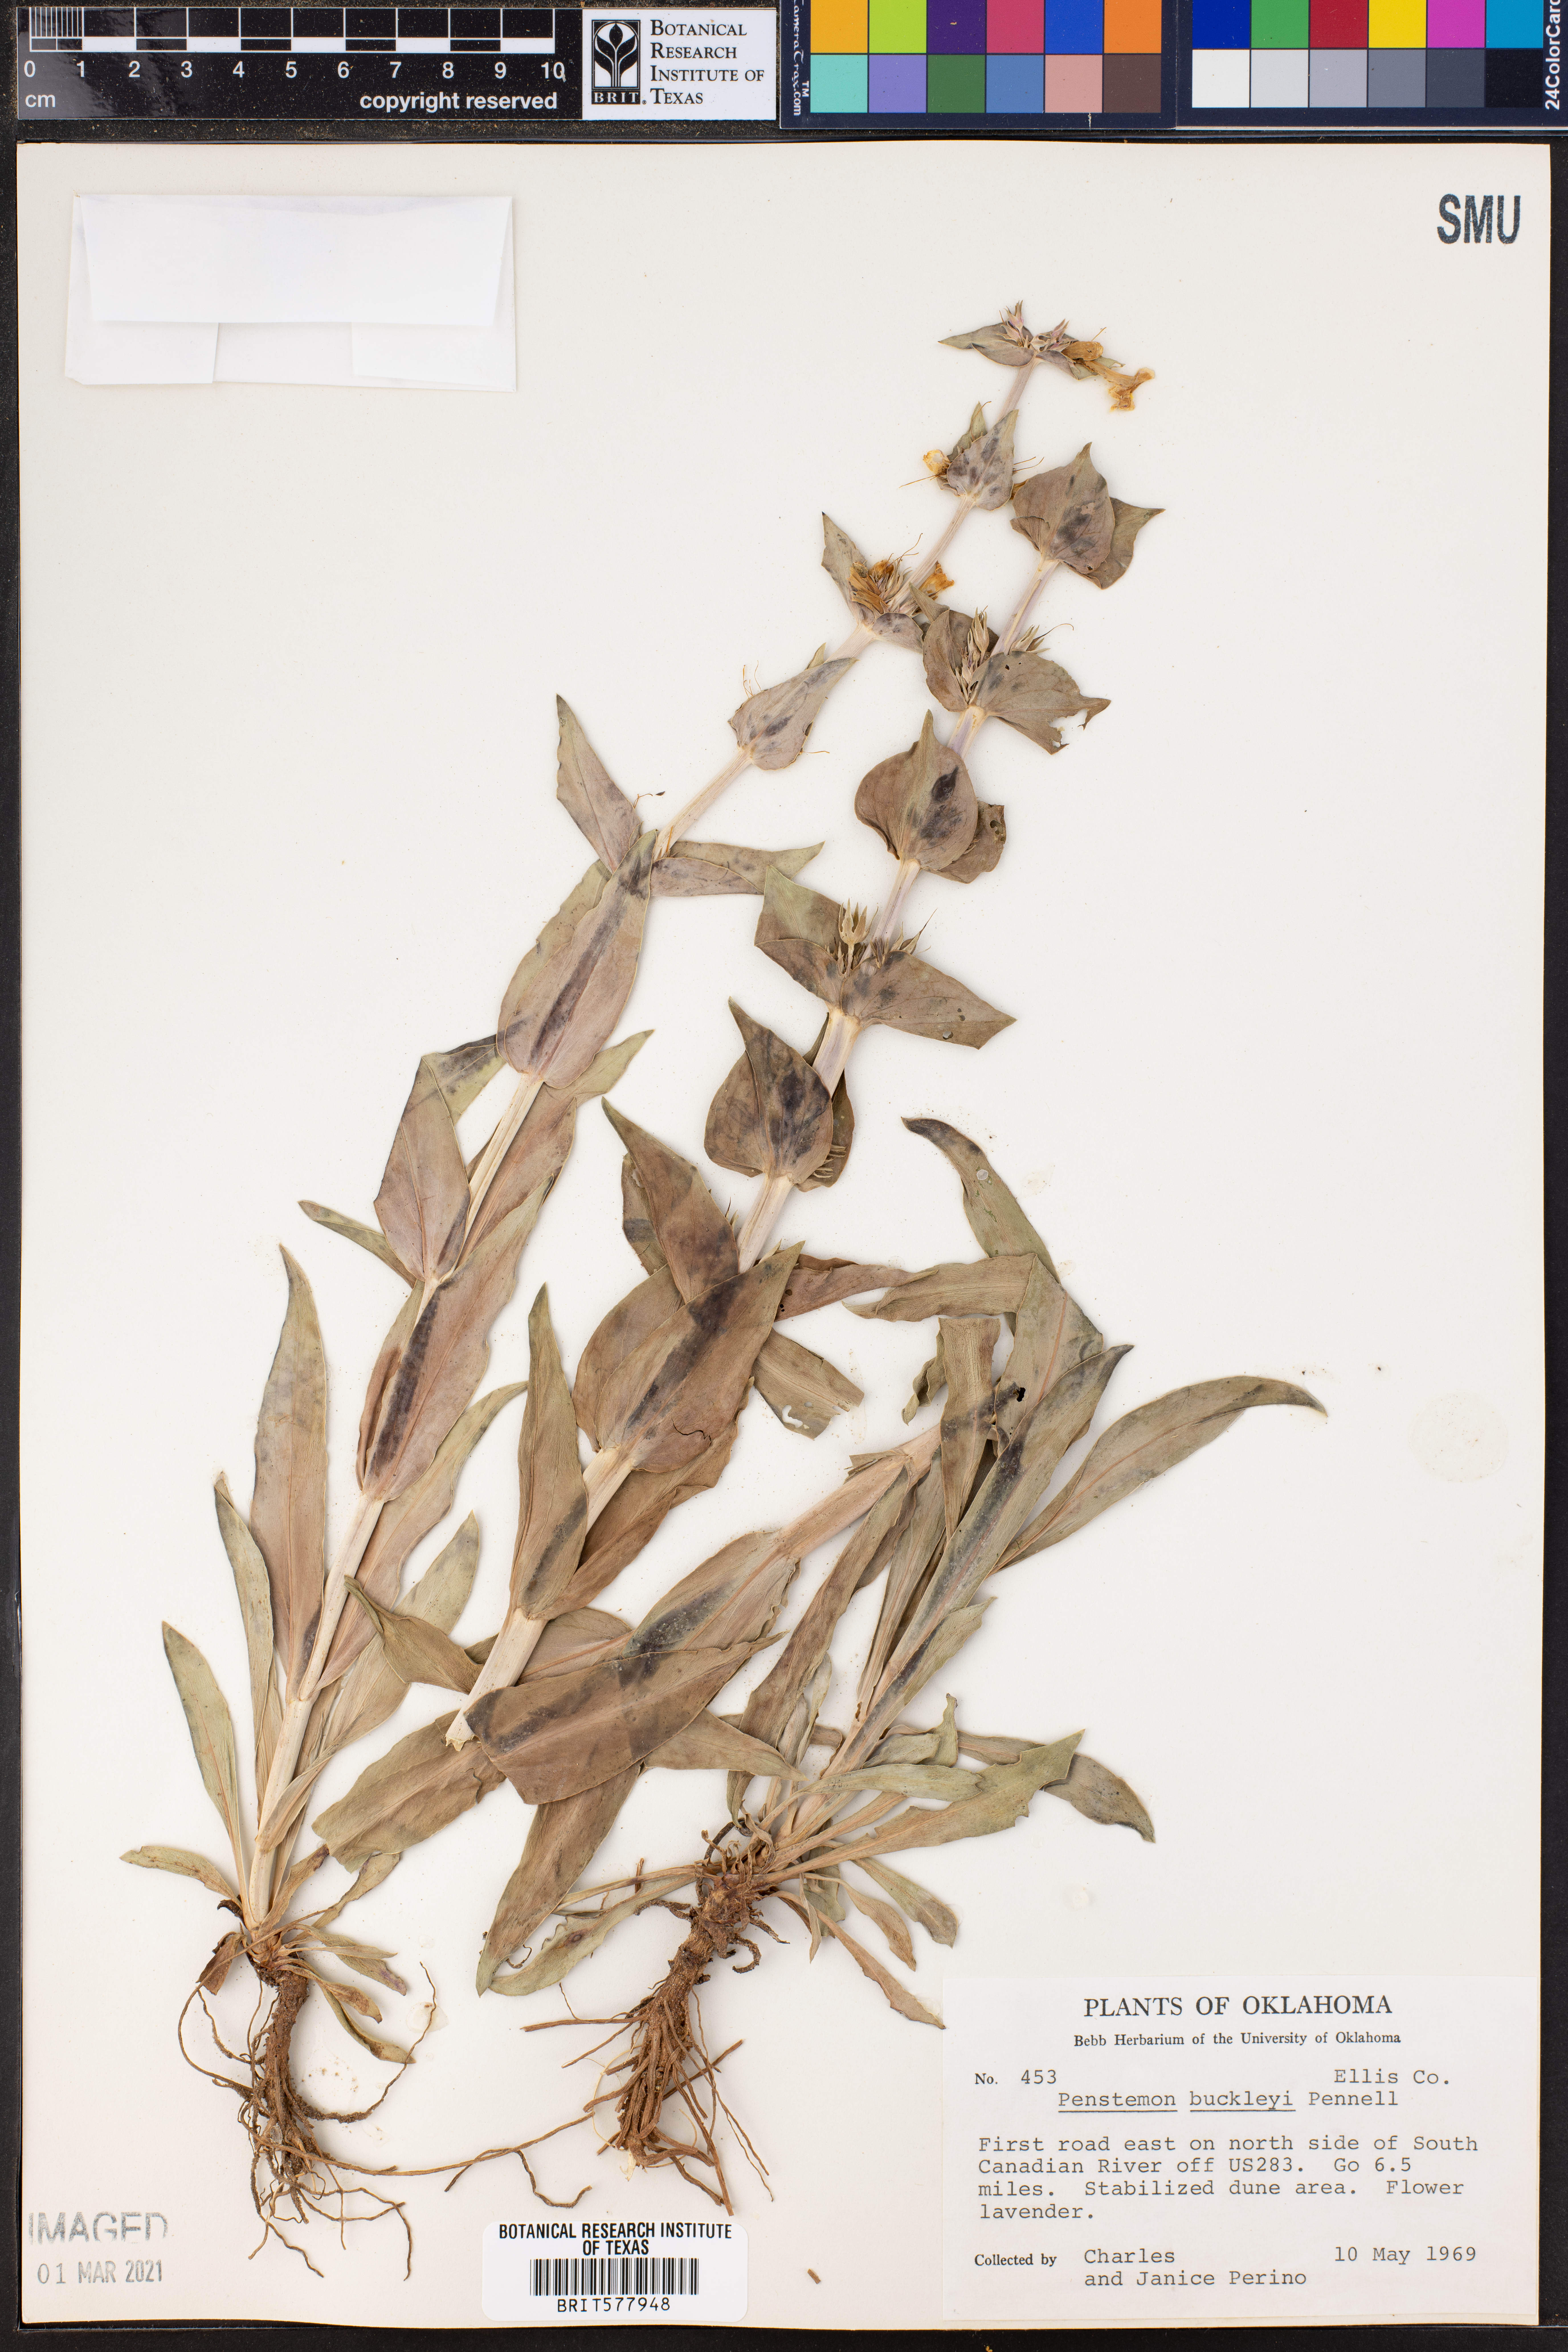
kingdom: Plantae
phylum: Tracheophyta
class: Magnoliopsida
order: Lamiales
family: Plantaginaceae
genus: Penstemon
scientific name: Penstemon buckleyi
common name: Buckley's penstemon
